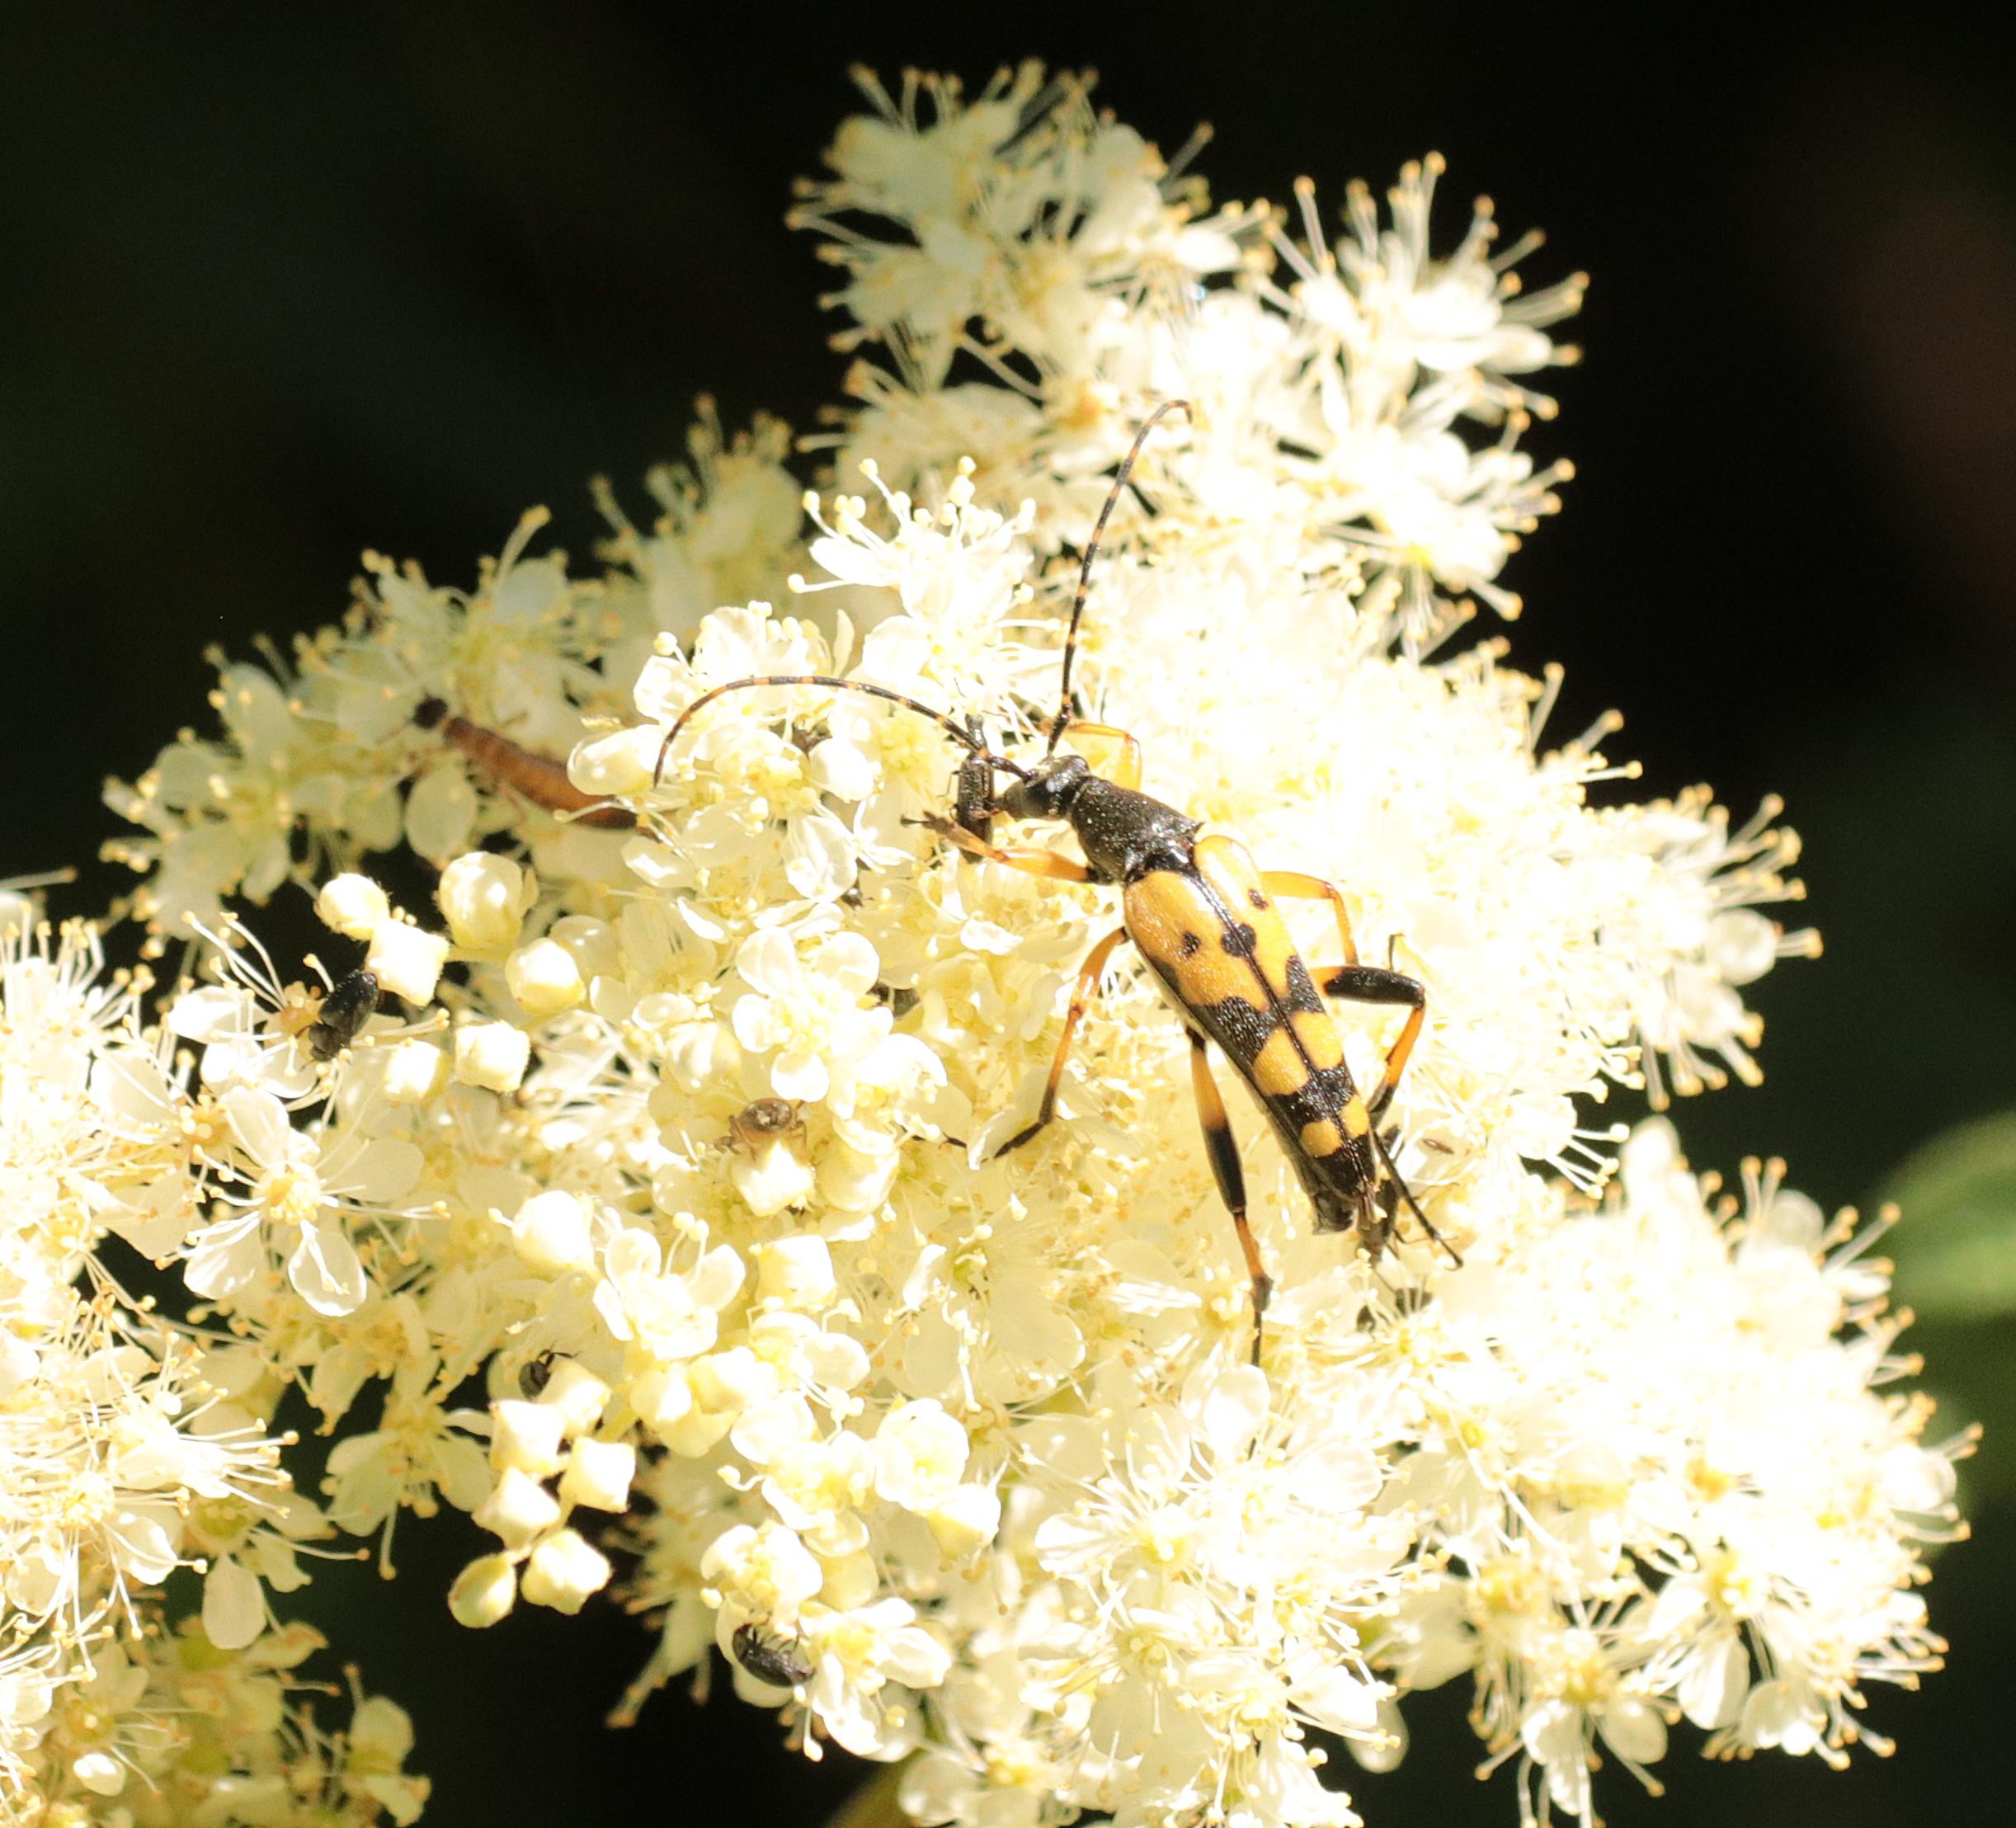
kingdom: Animalia
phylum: Arthropoda
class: Insecta
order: Coleoptera
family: Cerambycidae
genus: Rutpela
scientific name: Rutpela maculata
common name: Sydlig blomsterbuk
